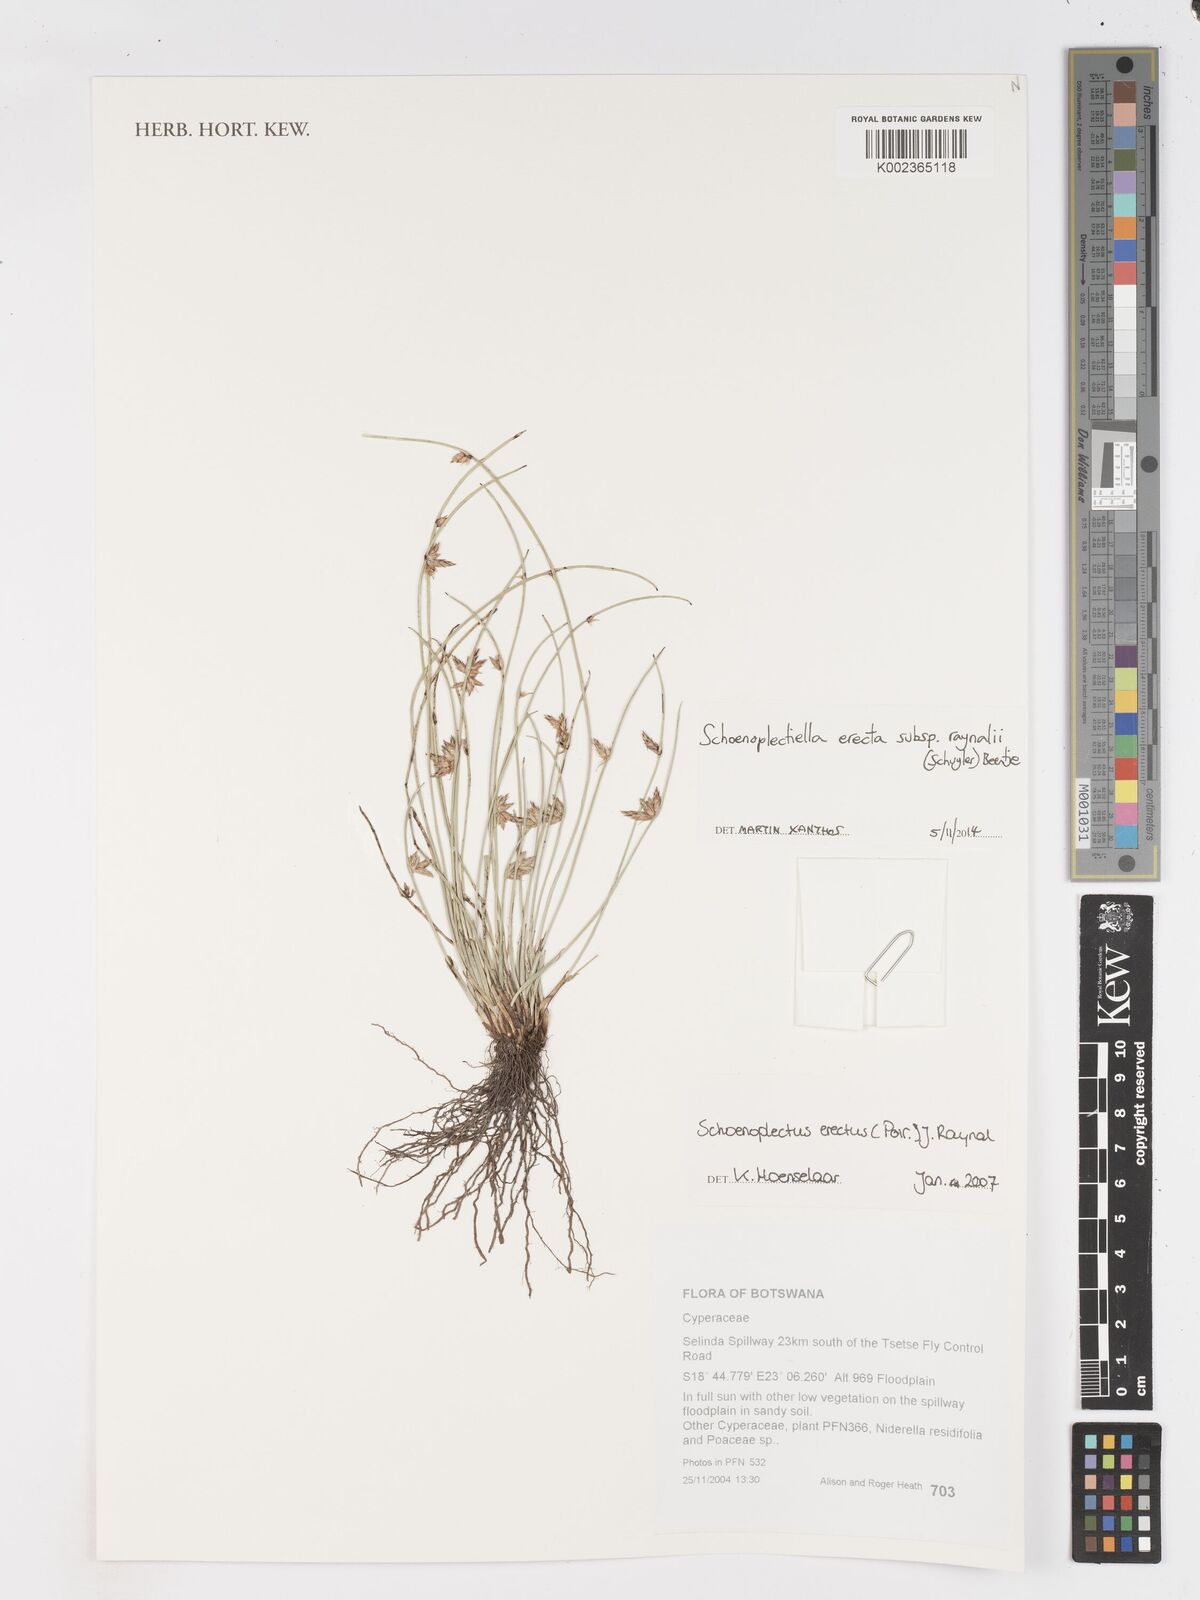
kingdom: Plantae
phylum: Tracheophyta
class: Liliopsida
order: Poales
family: Cyperaceae
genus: Schoenoplectiella
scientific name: Schoenoplectiella erecta
